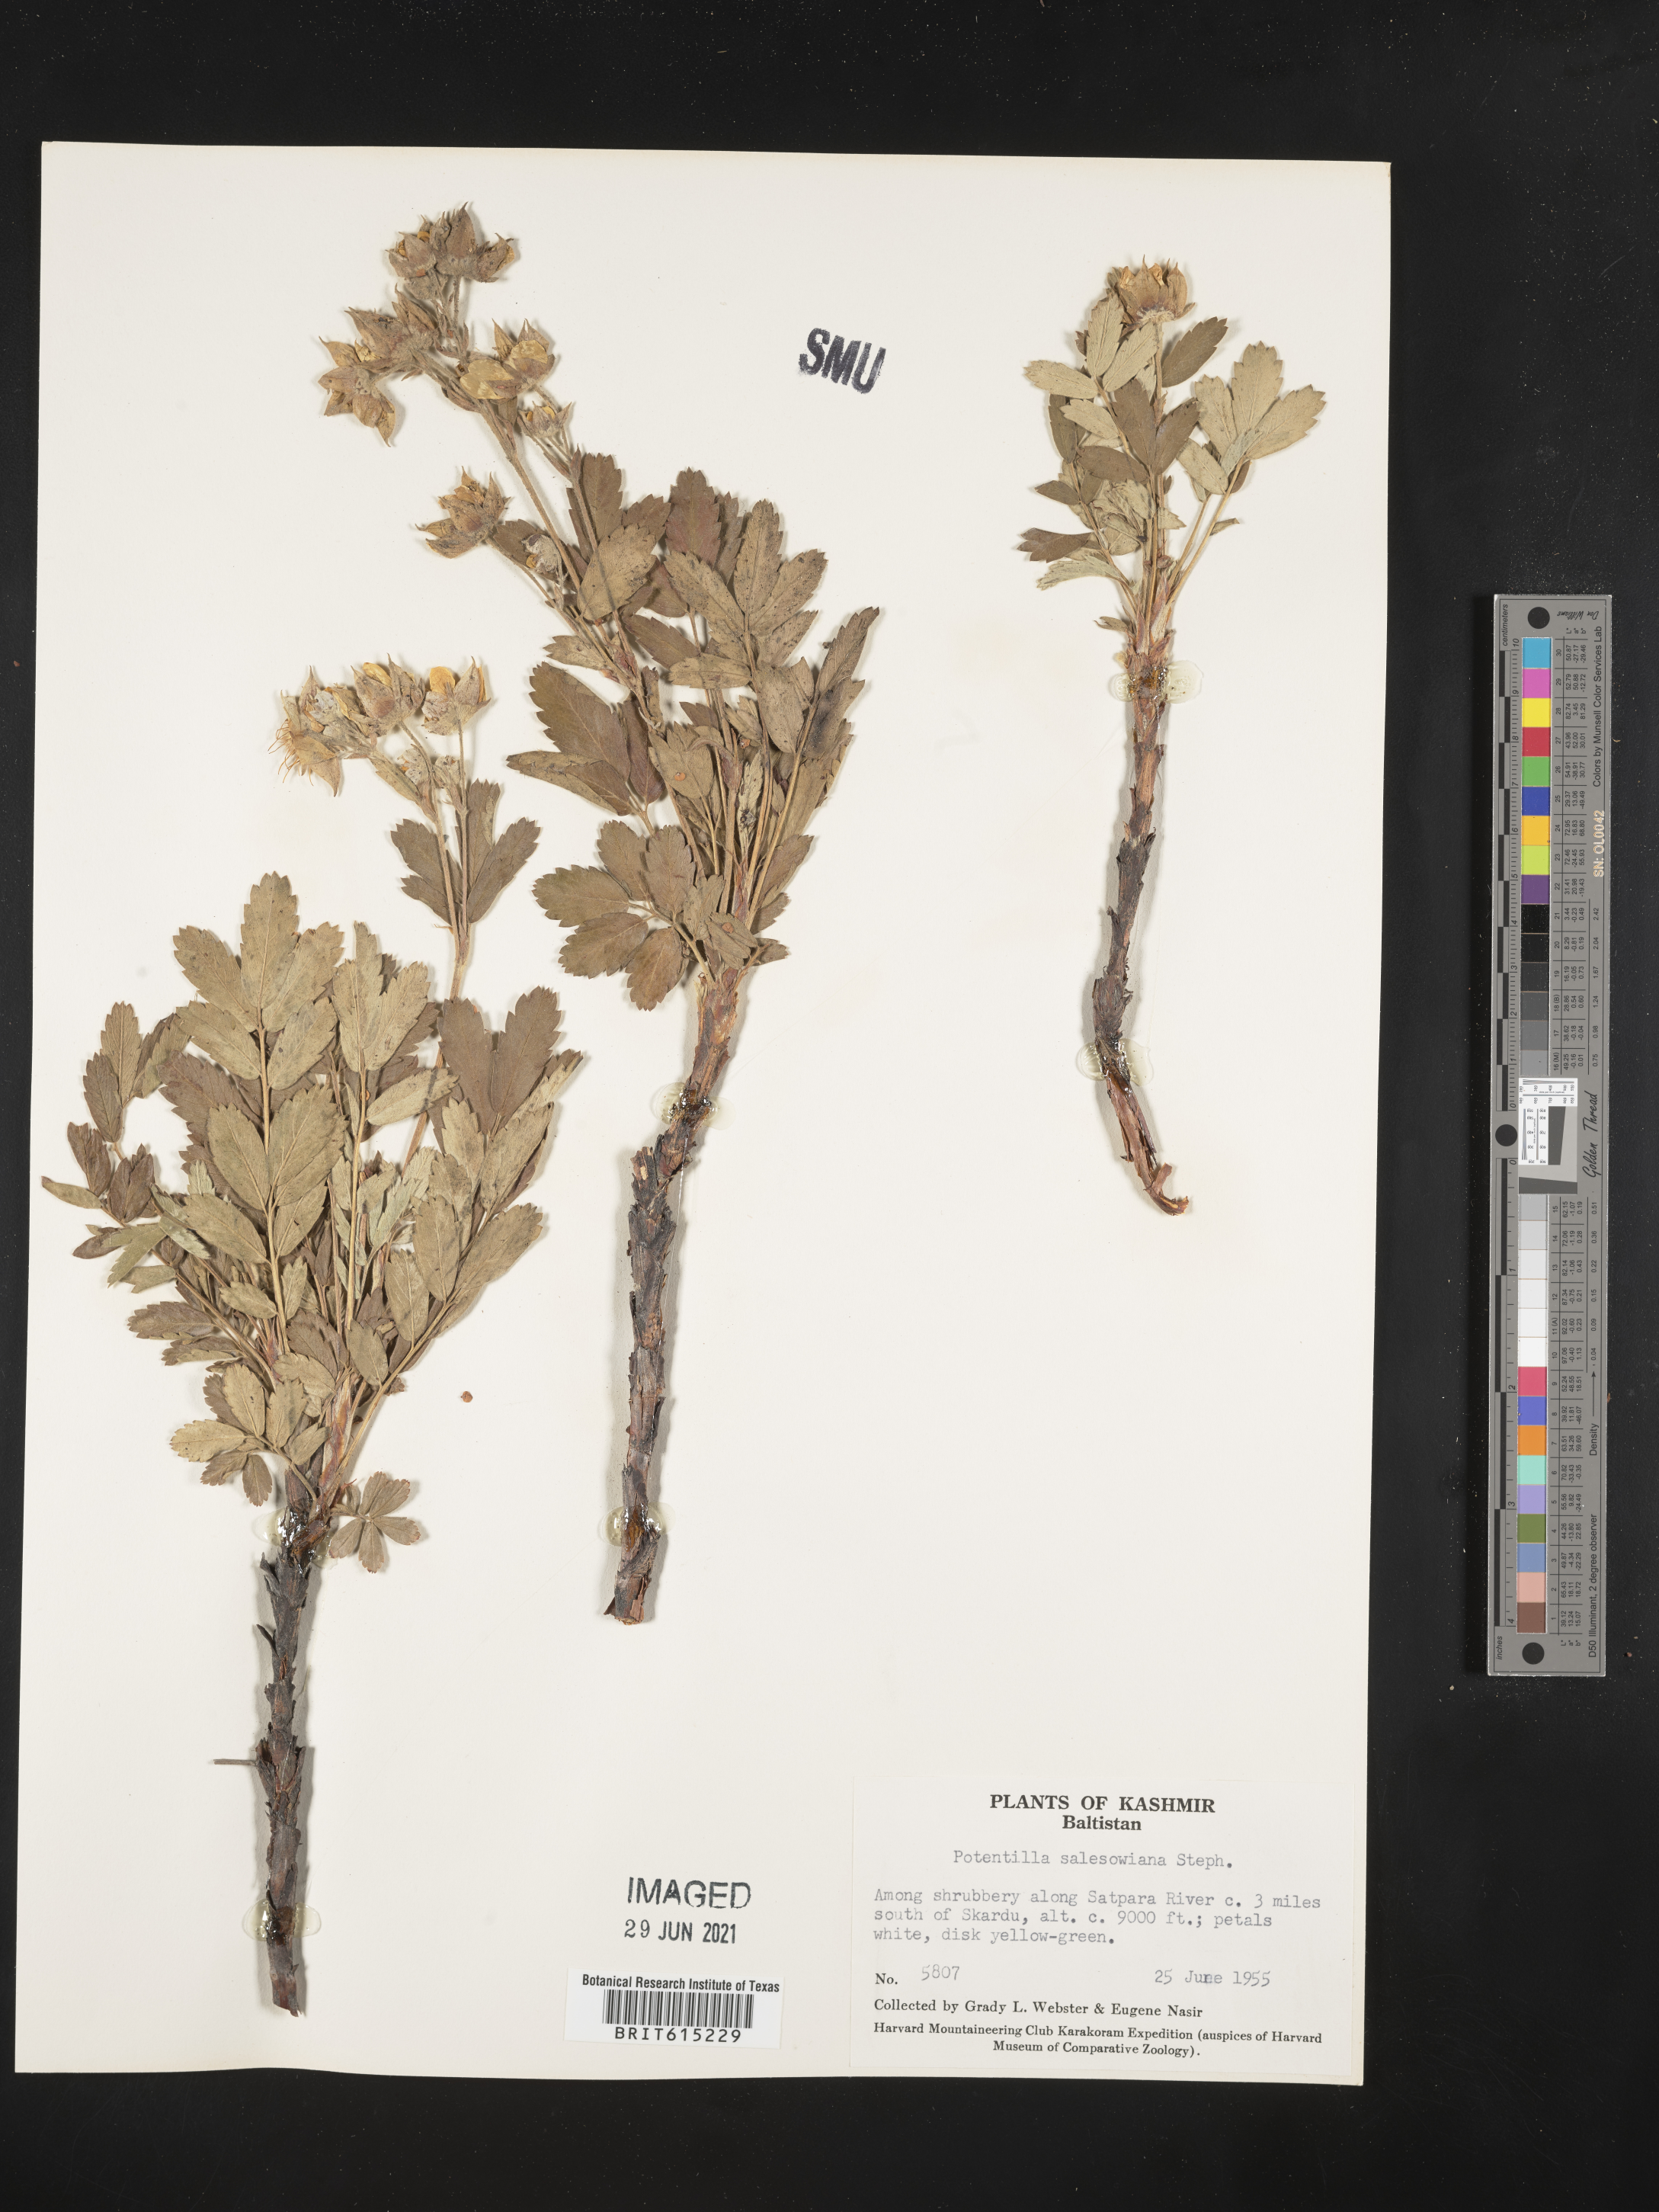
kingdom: Plantae
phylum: Tracheophyta
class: Magnoliopsida
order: Rosales
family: Rosaceae
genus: Farinopsis
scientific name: Farinopsis salesoviana
